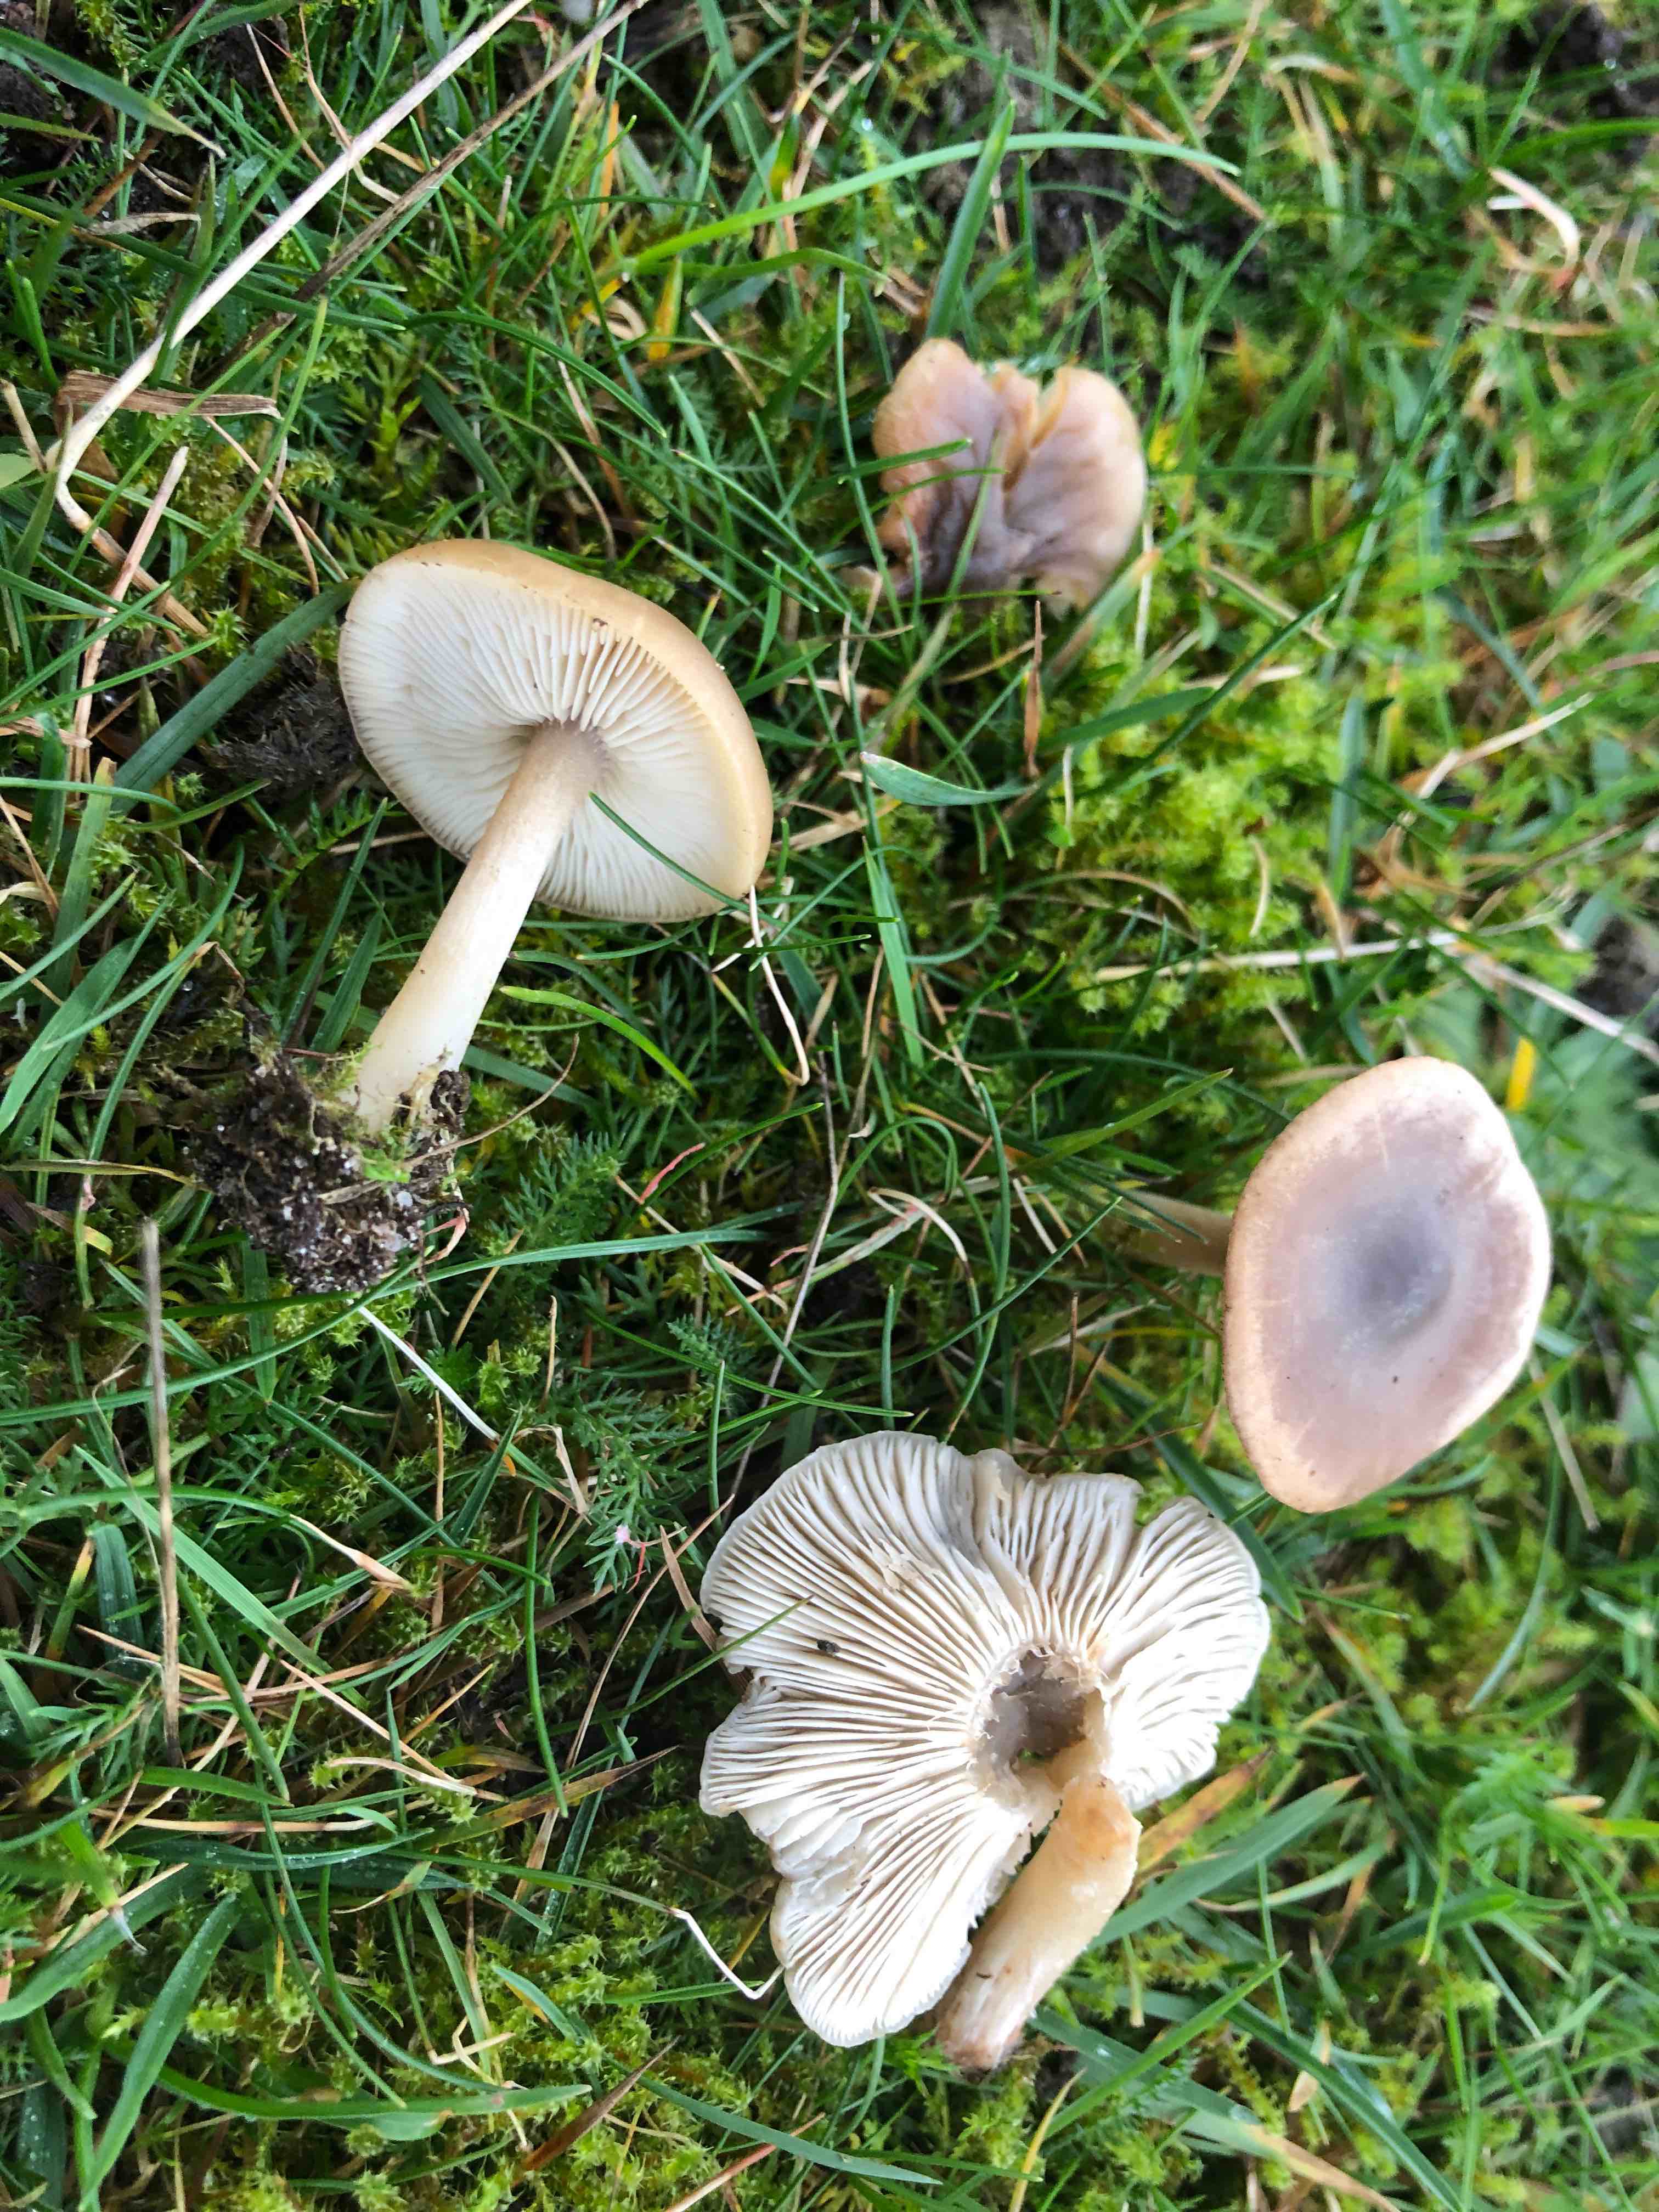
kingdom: Fungi
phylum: Basidiomycota
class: Agaricomycetes
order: Agaricales
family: Tricholomataceae
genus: Melanoleuca
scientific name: Melanoleuca
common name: munkehat
